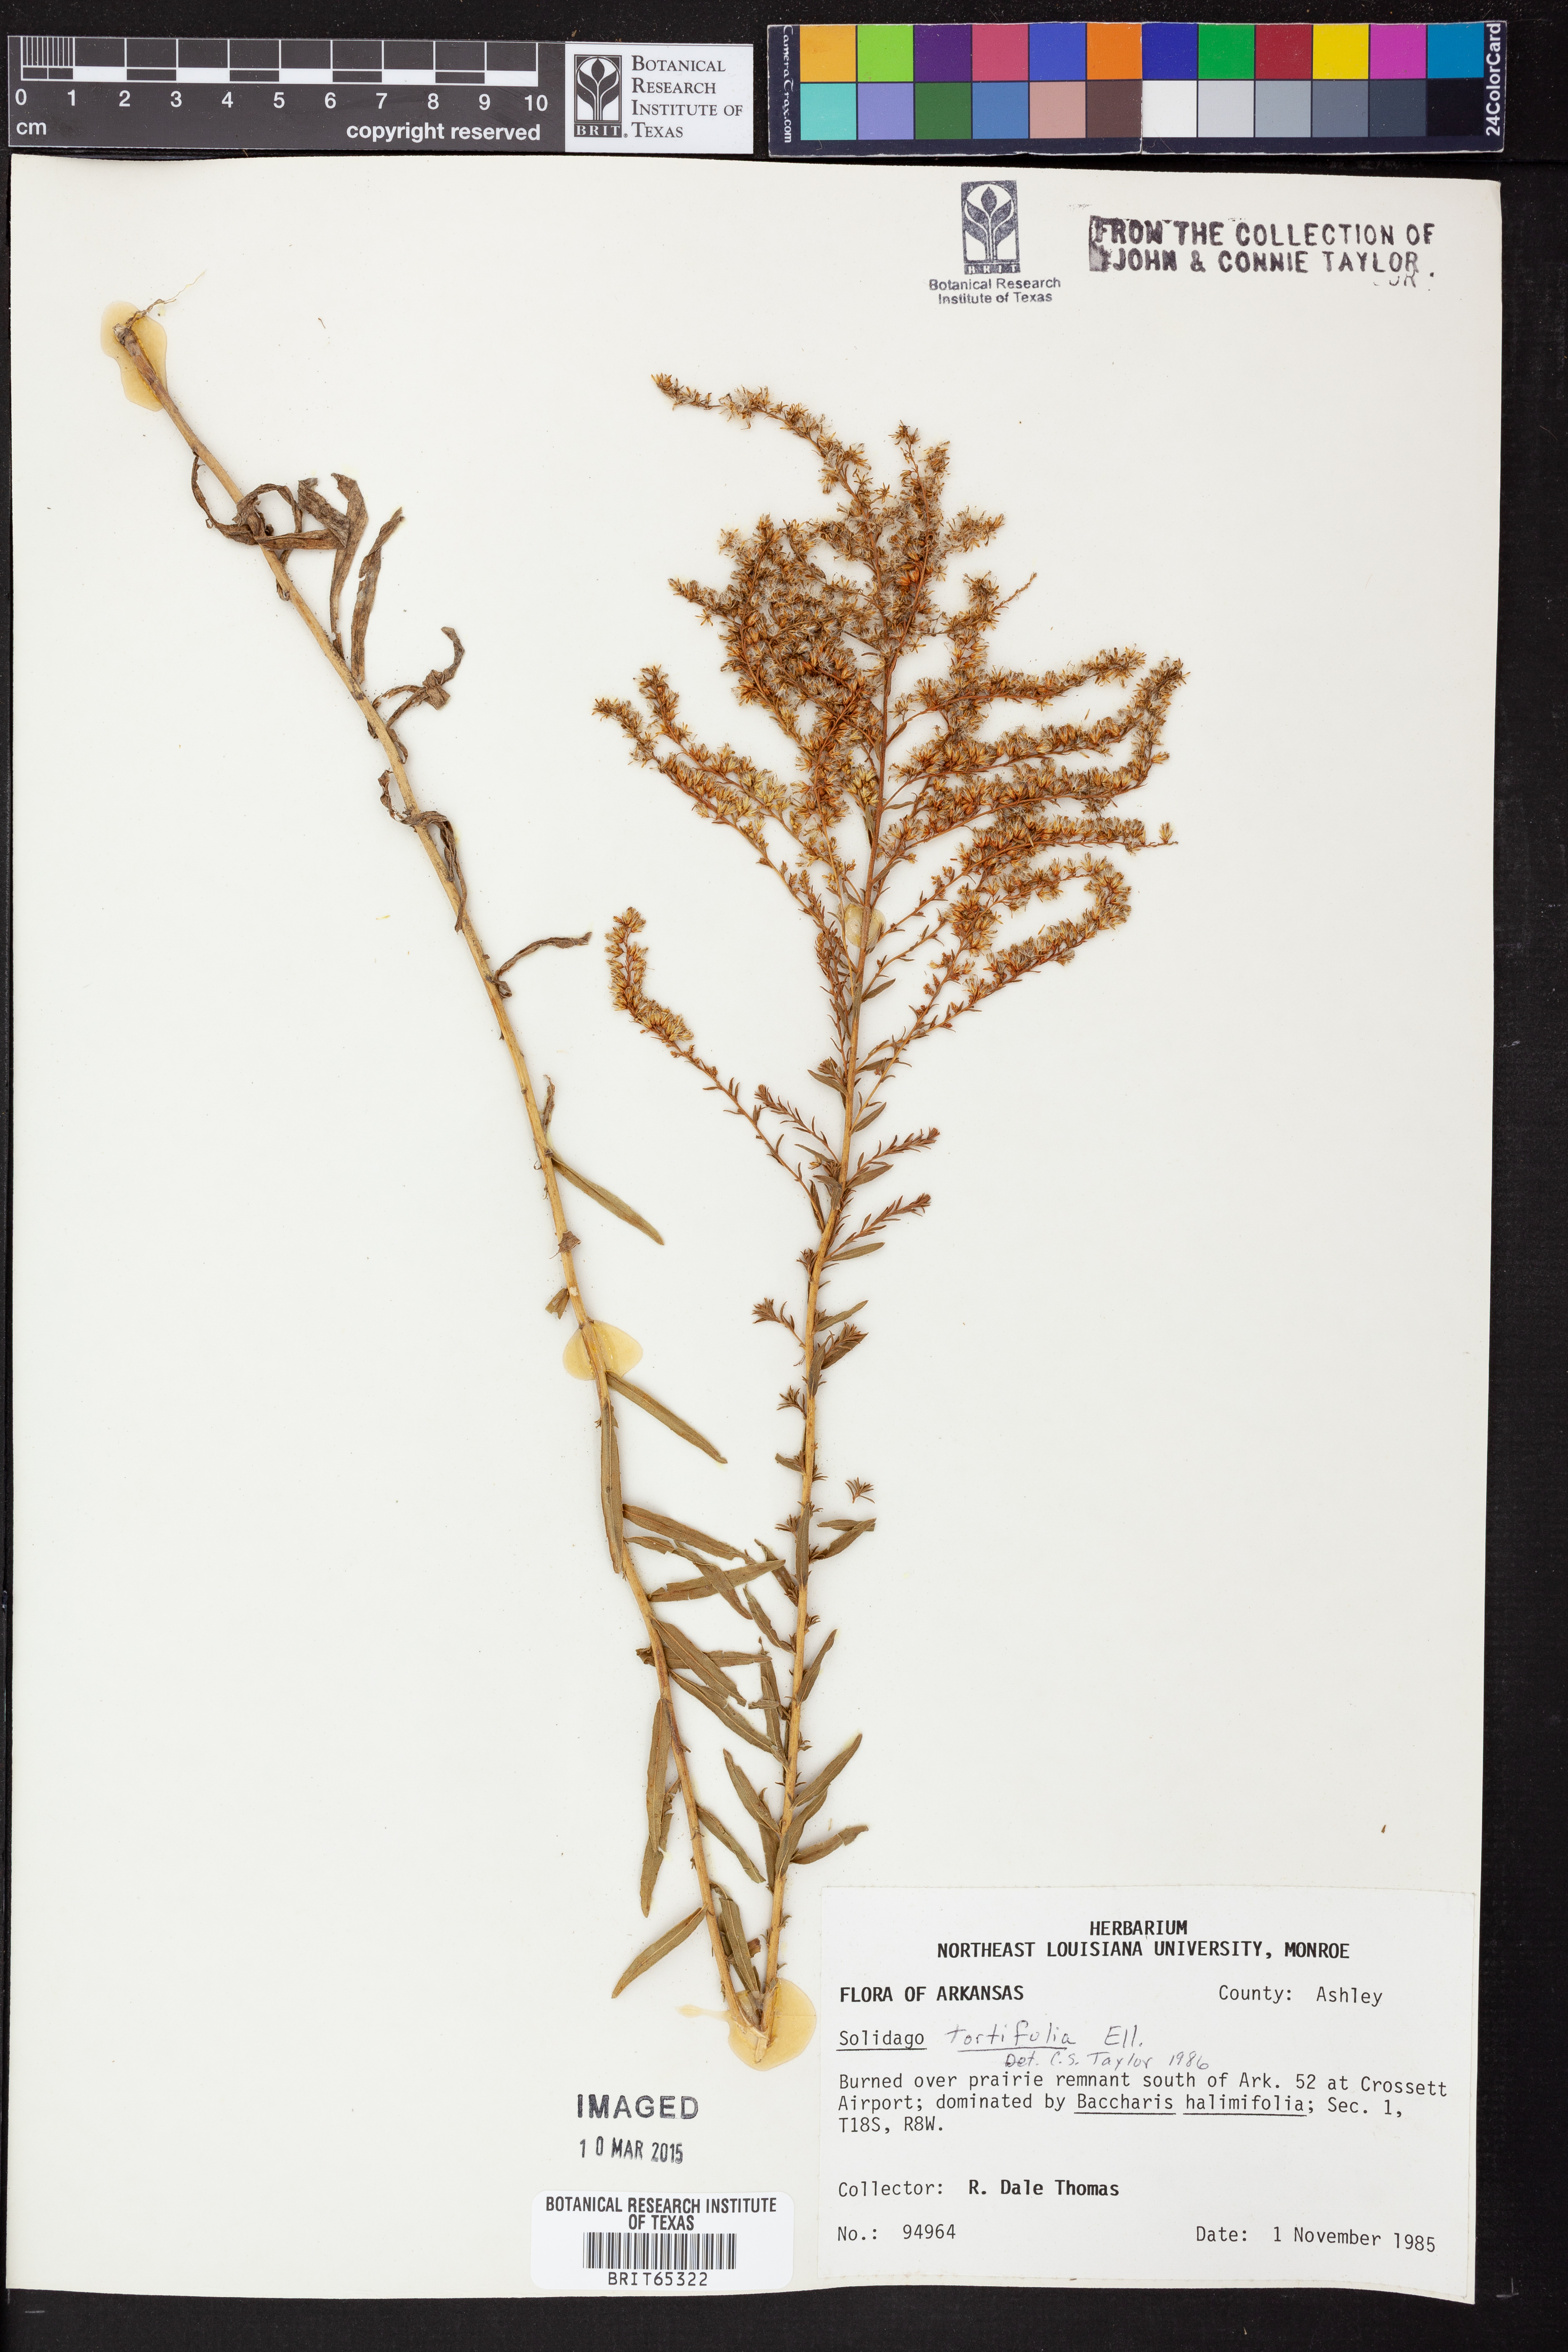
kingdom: Plantae
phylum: Tracheophyta
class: Magnoliopsida
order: Asterales
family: Asteraceae
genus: Solidago
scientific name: Solidago tortifolia
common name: Twisted-leaf goldenrod
